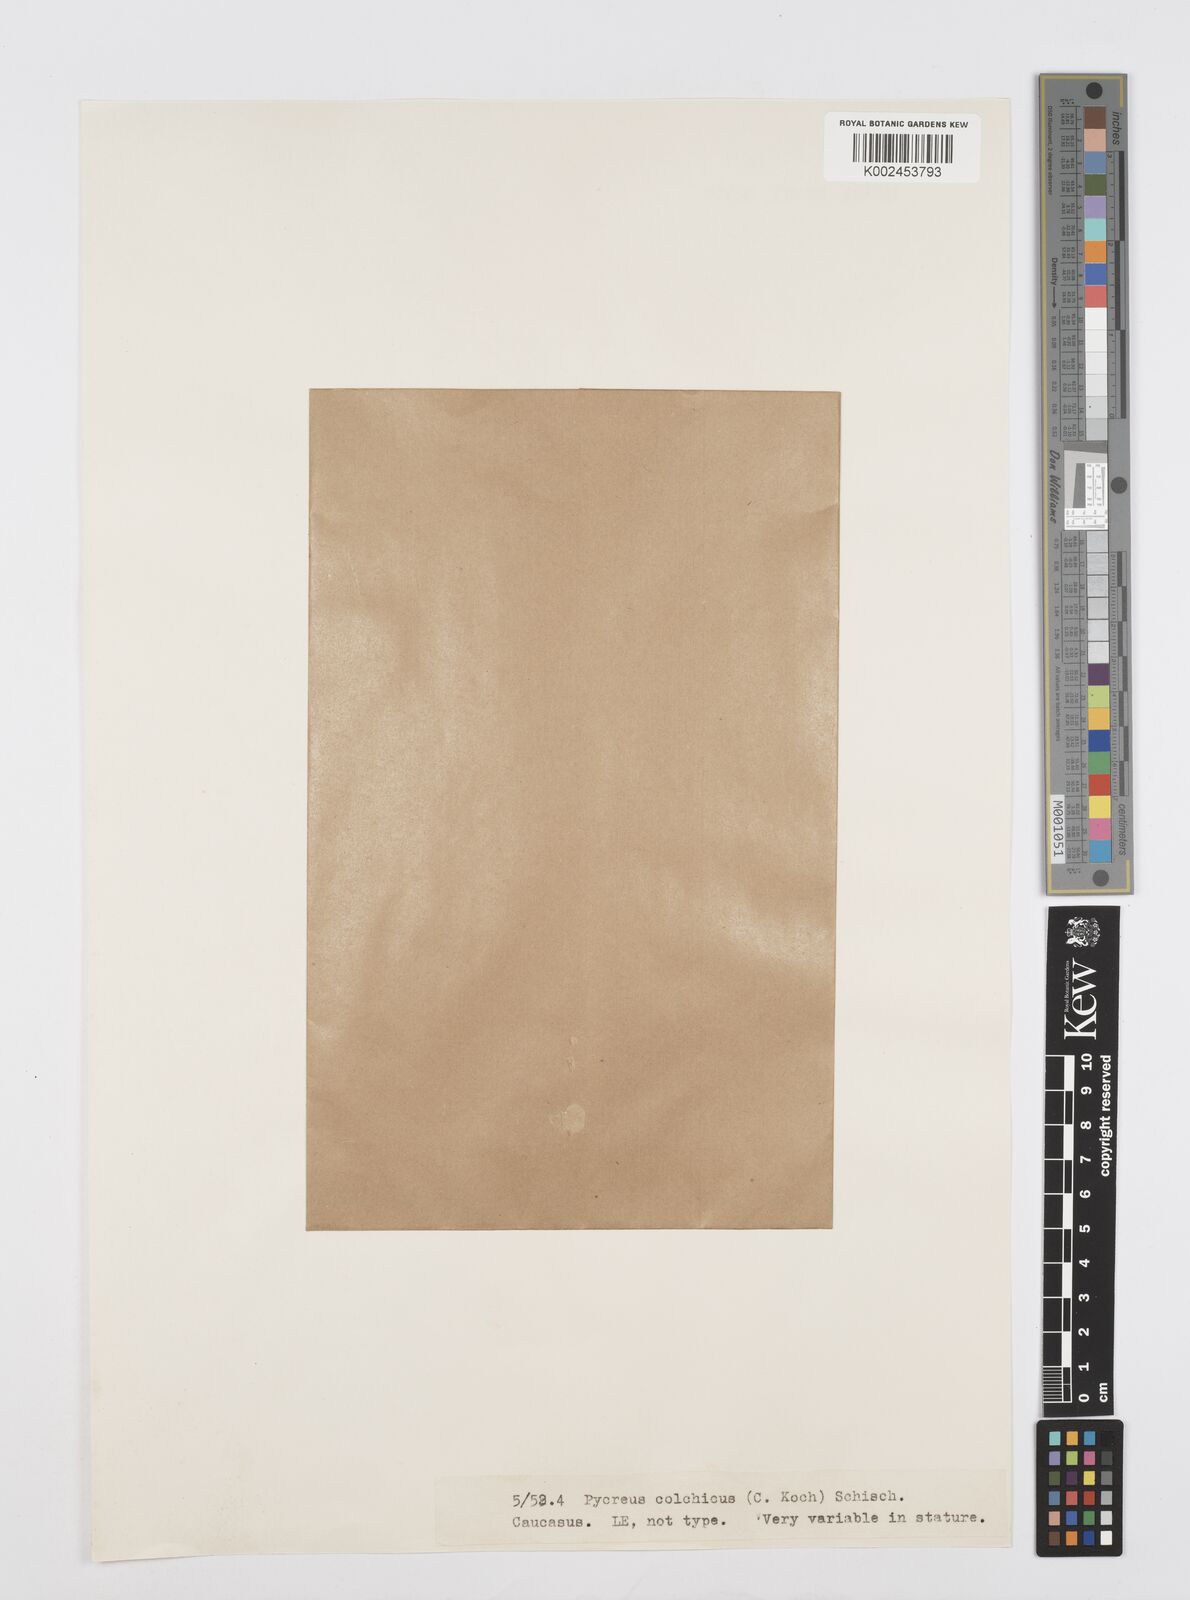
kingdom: Plantae
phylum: Tracheophyta
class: Liliopsida
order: Poales
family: Cyperaceae
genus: Cyperus
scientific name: Cyperus macrostachyos
